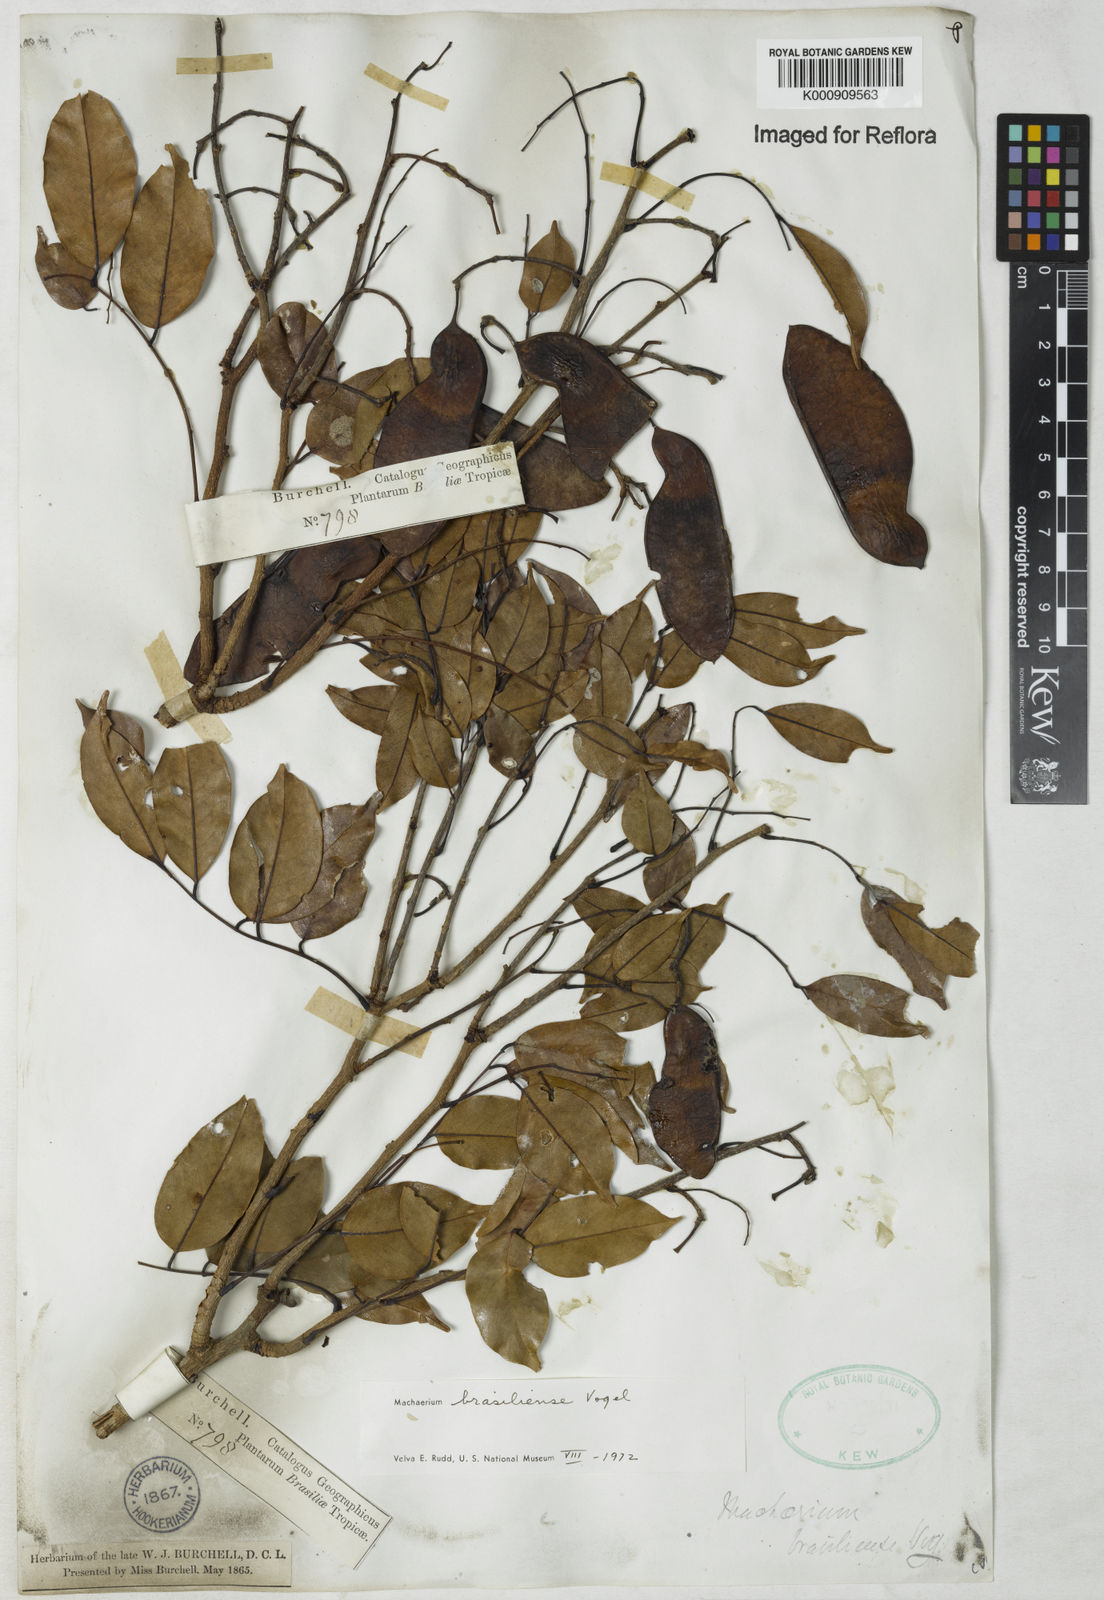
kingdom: Plantae
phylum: Tracheophyta
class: Magnoliopsida
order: Fabales
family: Fabaceae
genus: Machaerium
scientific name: Machaerium brasiliense
